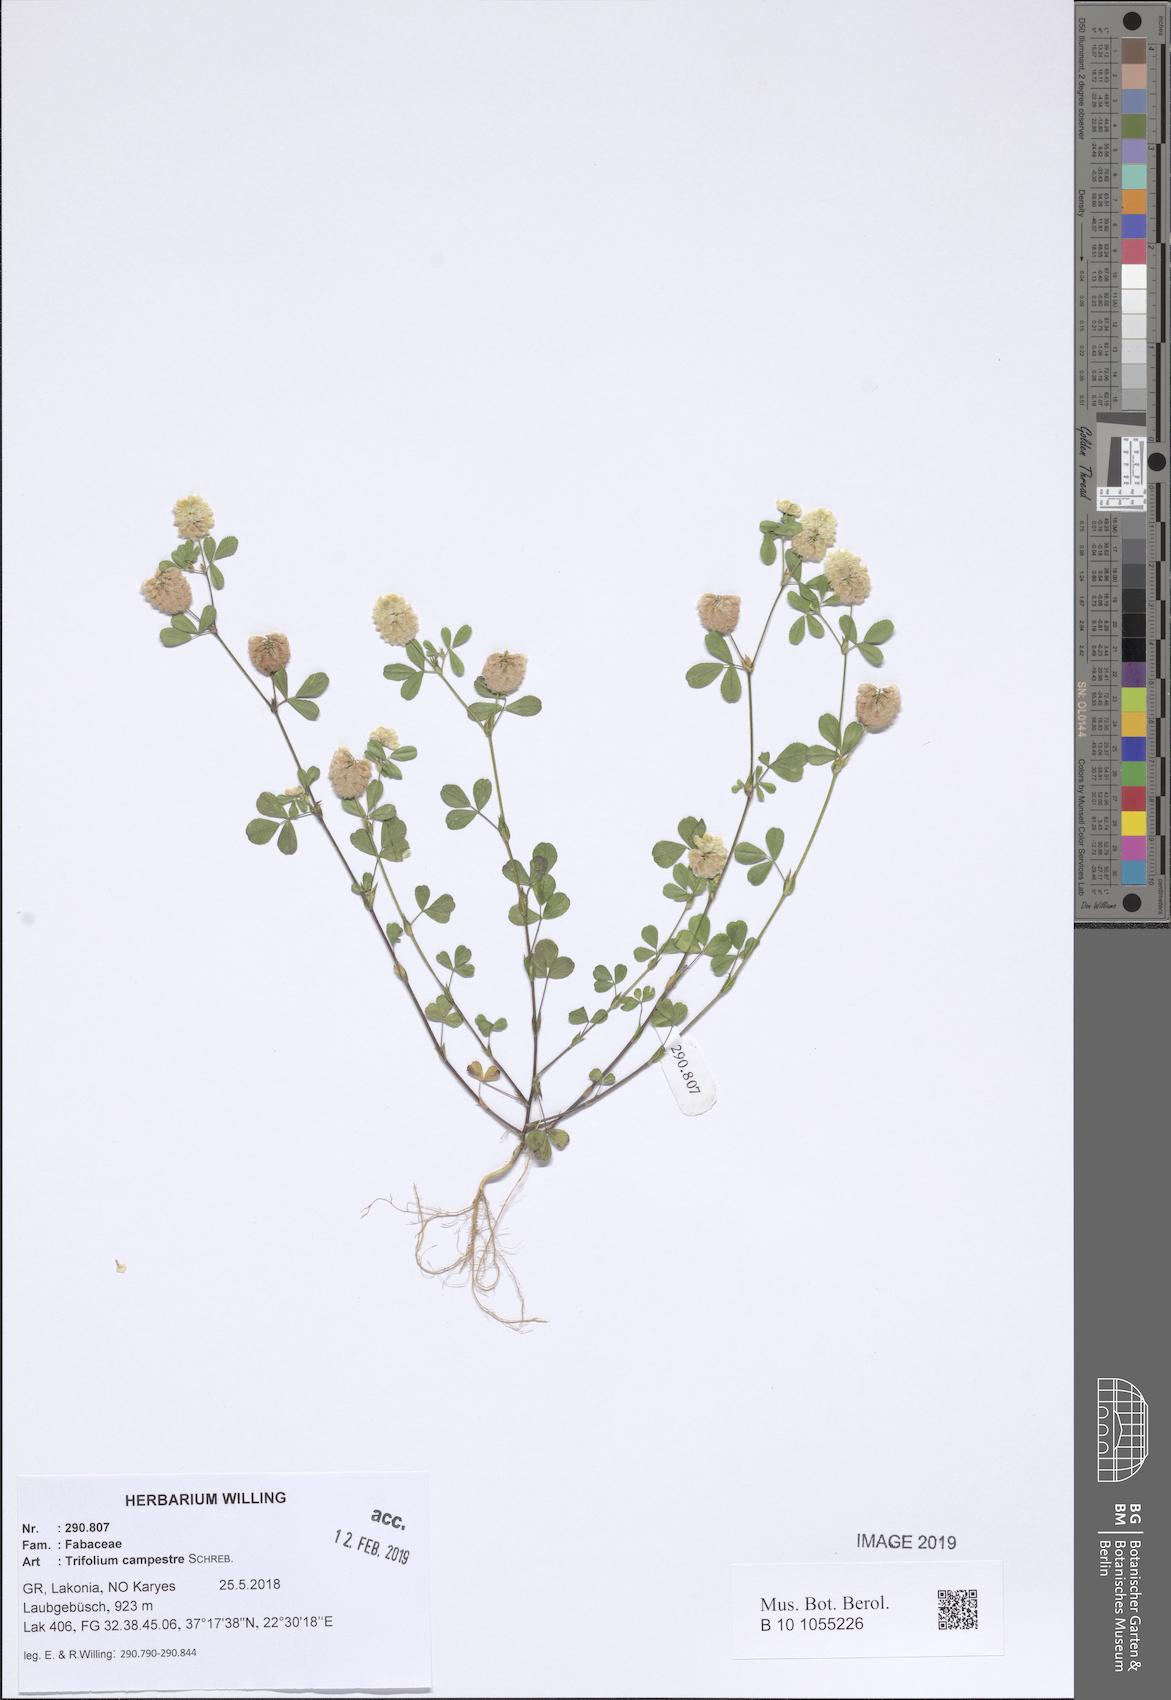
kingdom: Plantae
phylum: Tracheophyta
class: Magnoliopsida
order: Fabales
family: Fabaceae
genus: Trifolium
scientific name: Trifolium campestre
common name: Field clover
